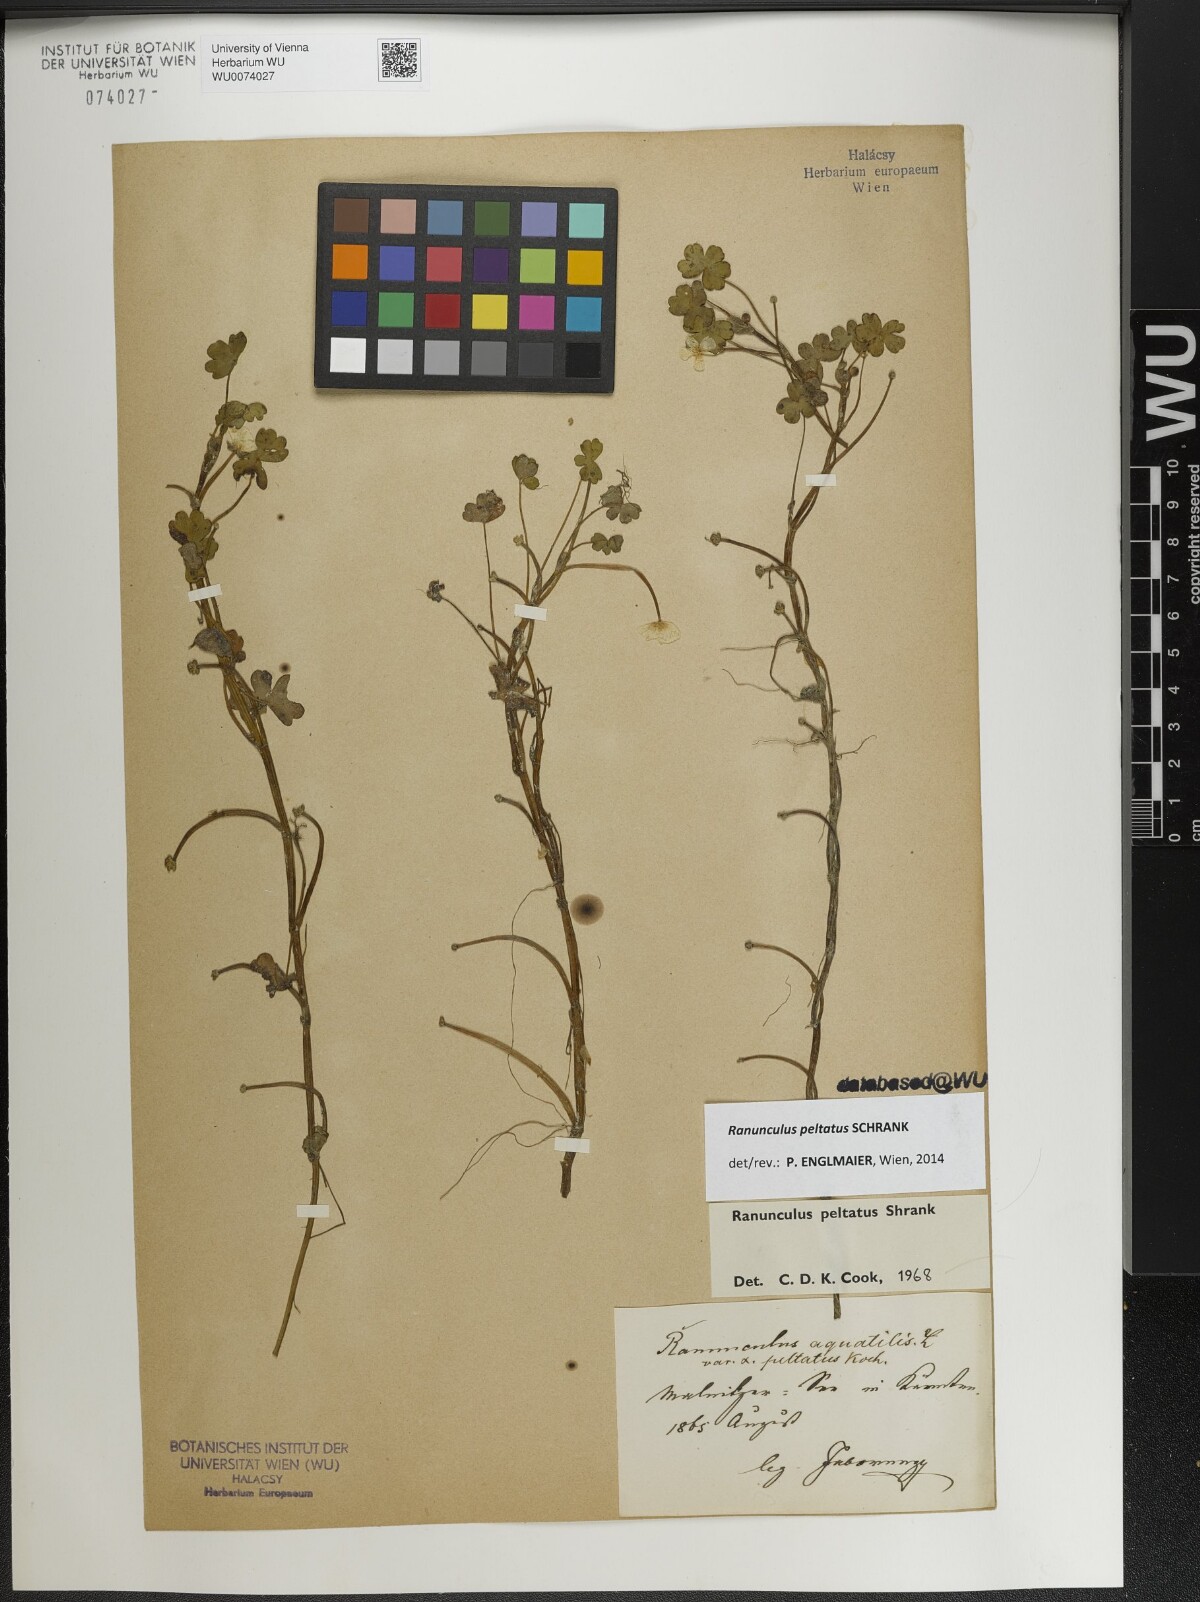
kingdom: Plantae
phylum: Tracheophyta
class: Magnoliopsida
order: Ranunculales
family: Ranunculaceae
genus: Ranunculus
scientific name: Ranunculus peltatus
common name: Pond water-crowfoot
